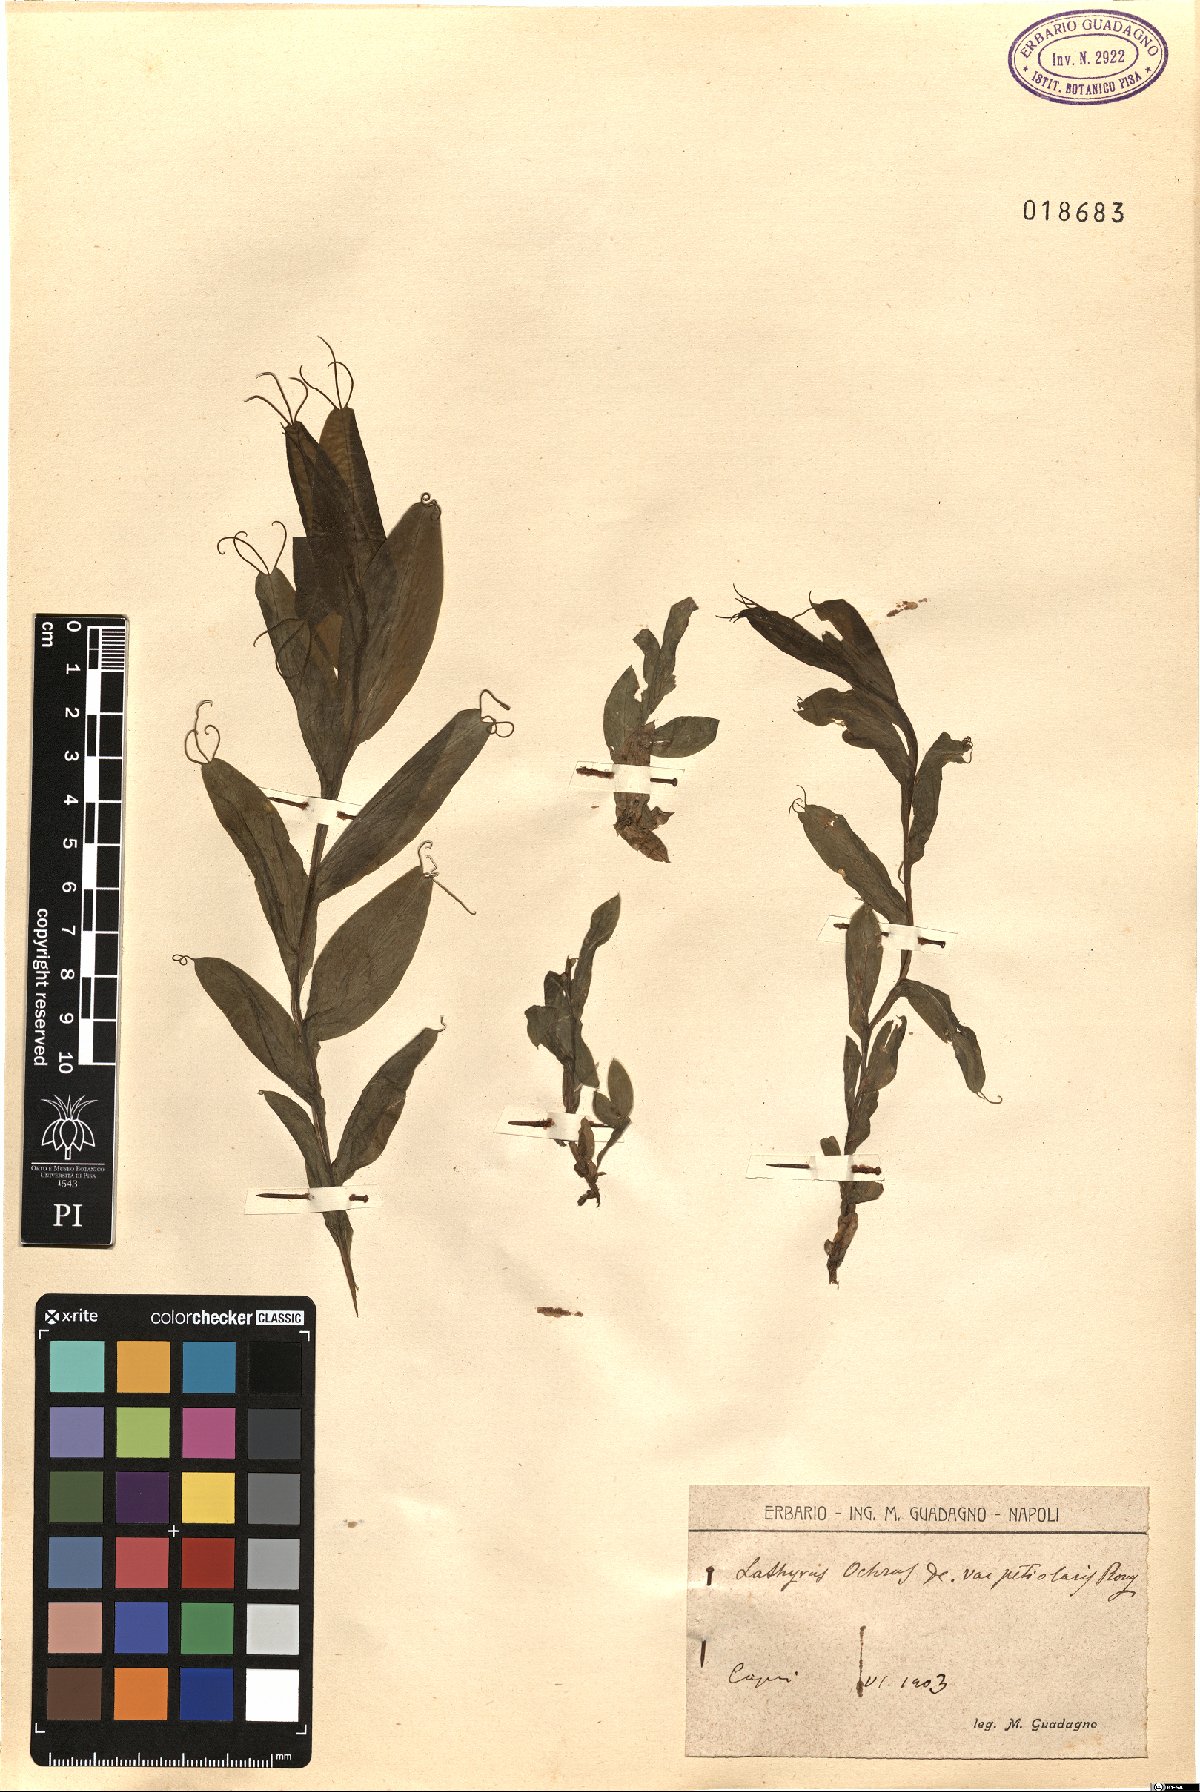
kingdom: Plantae
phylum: Tracheophyta
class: Magnoliopsida
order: Fabales
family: Fabaceae
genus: Lathyrus
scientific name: Lathyrus ochrus
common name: Winged vetchling
